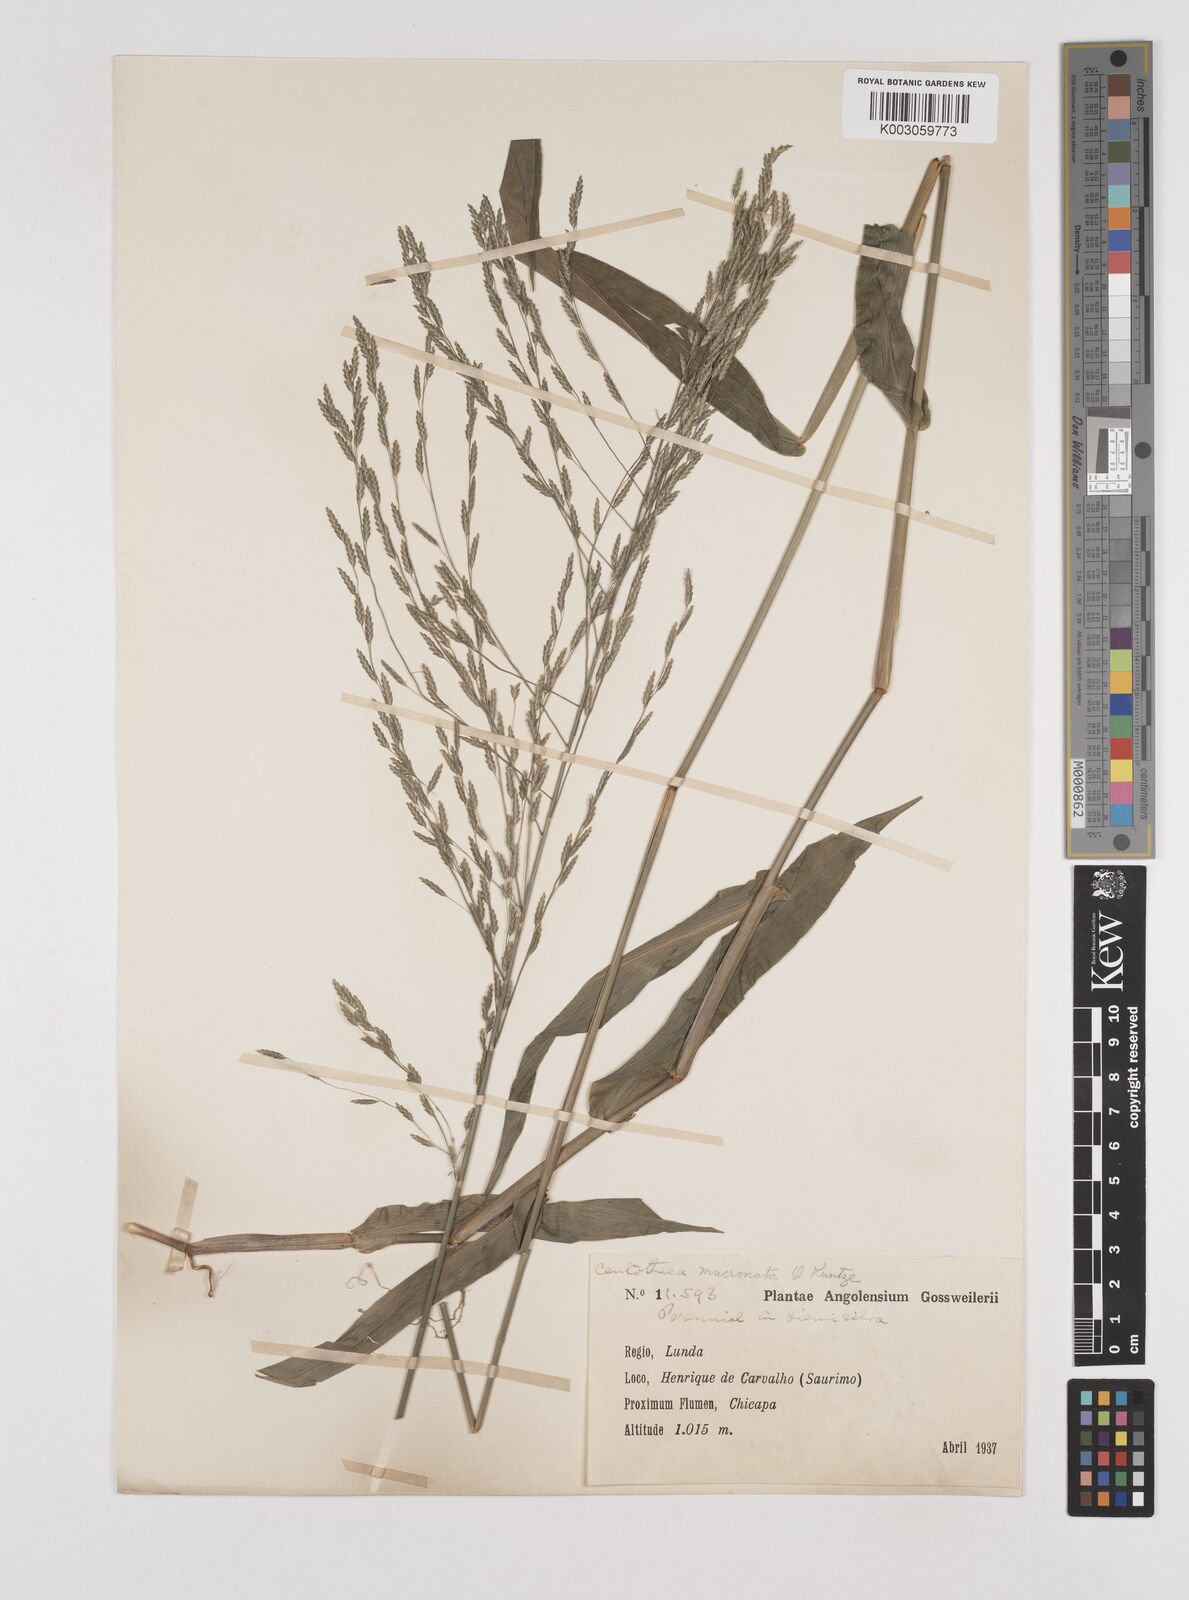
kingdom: Plantae
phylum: Tracheophyta
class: Liliopsida
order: Poales
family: Poaceae
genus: Megastachya
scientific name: Megastachya mucronata
